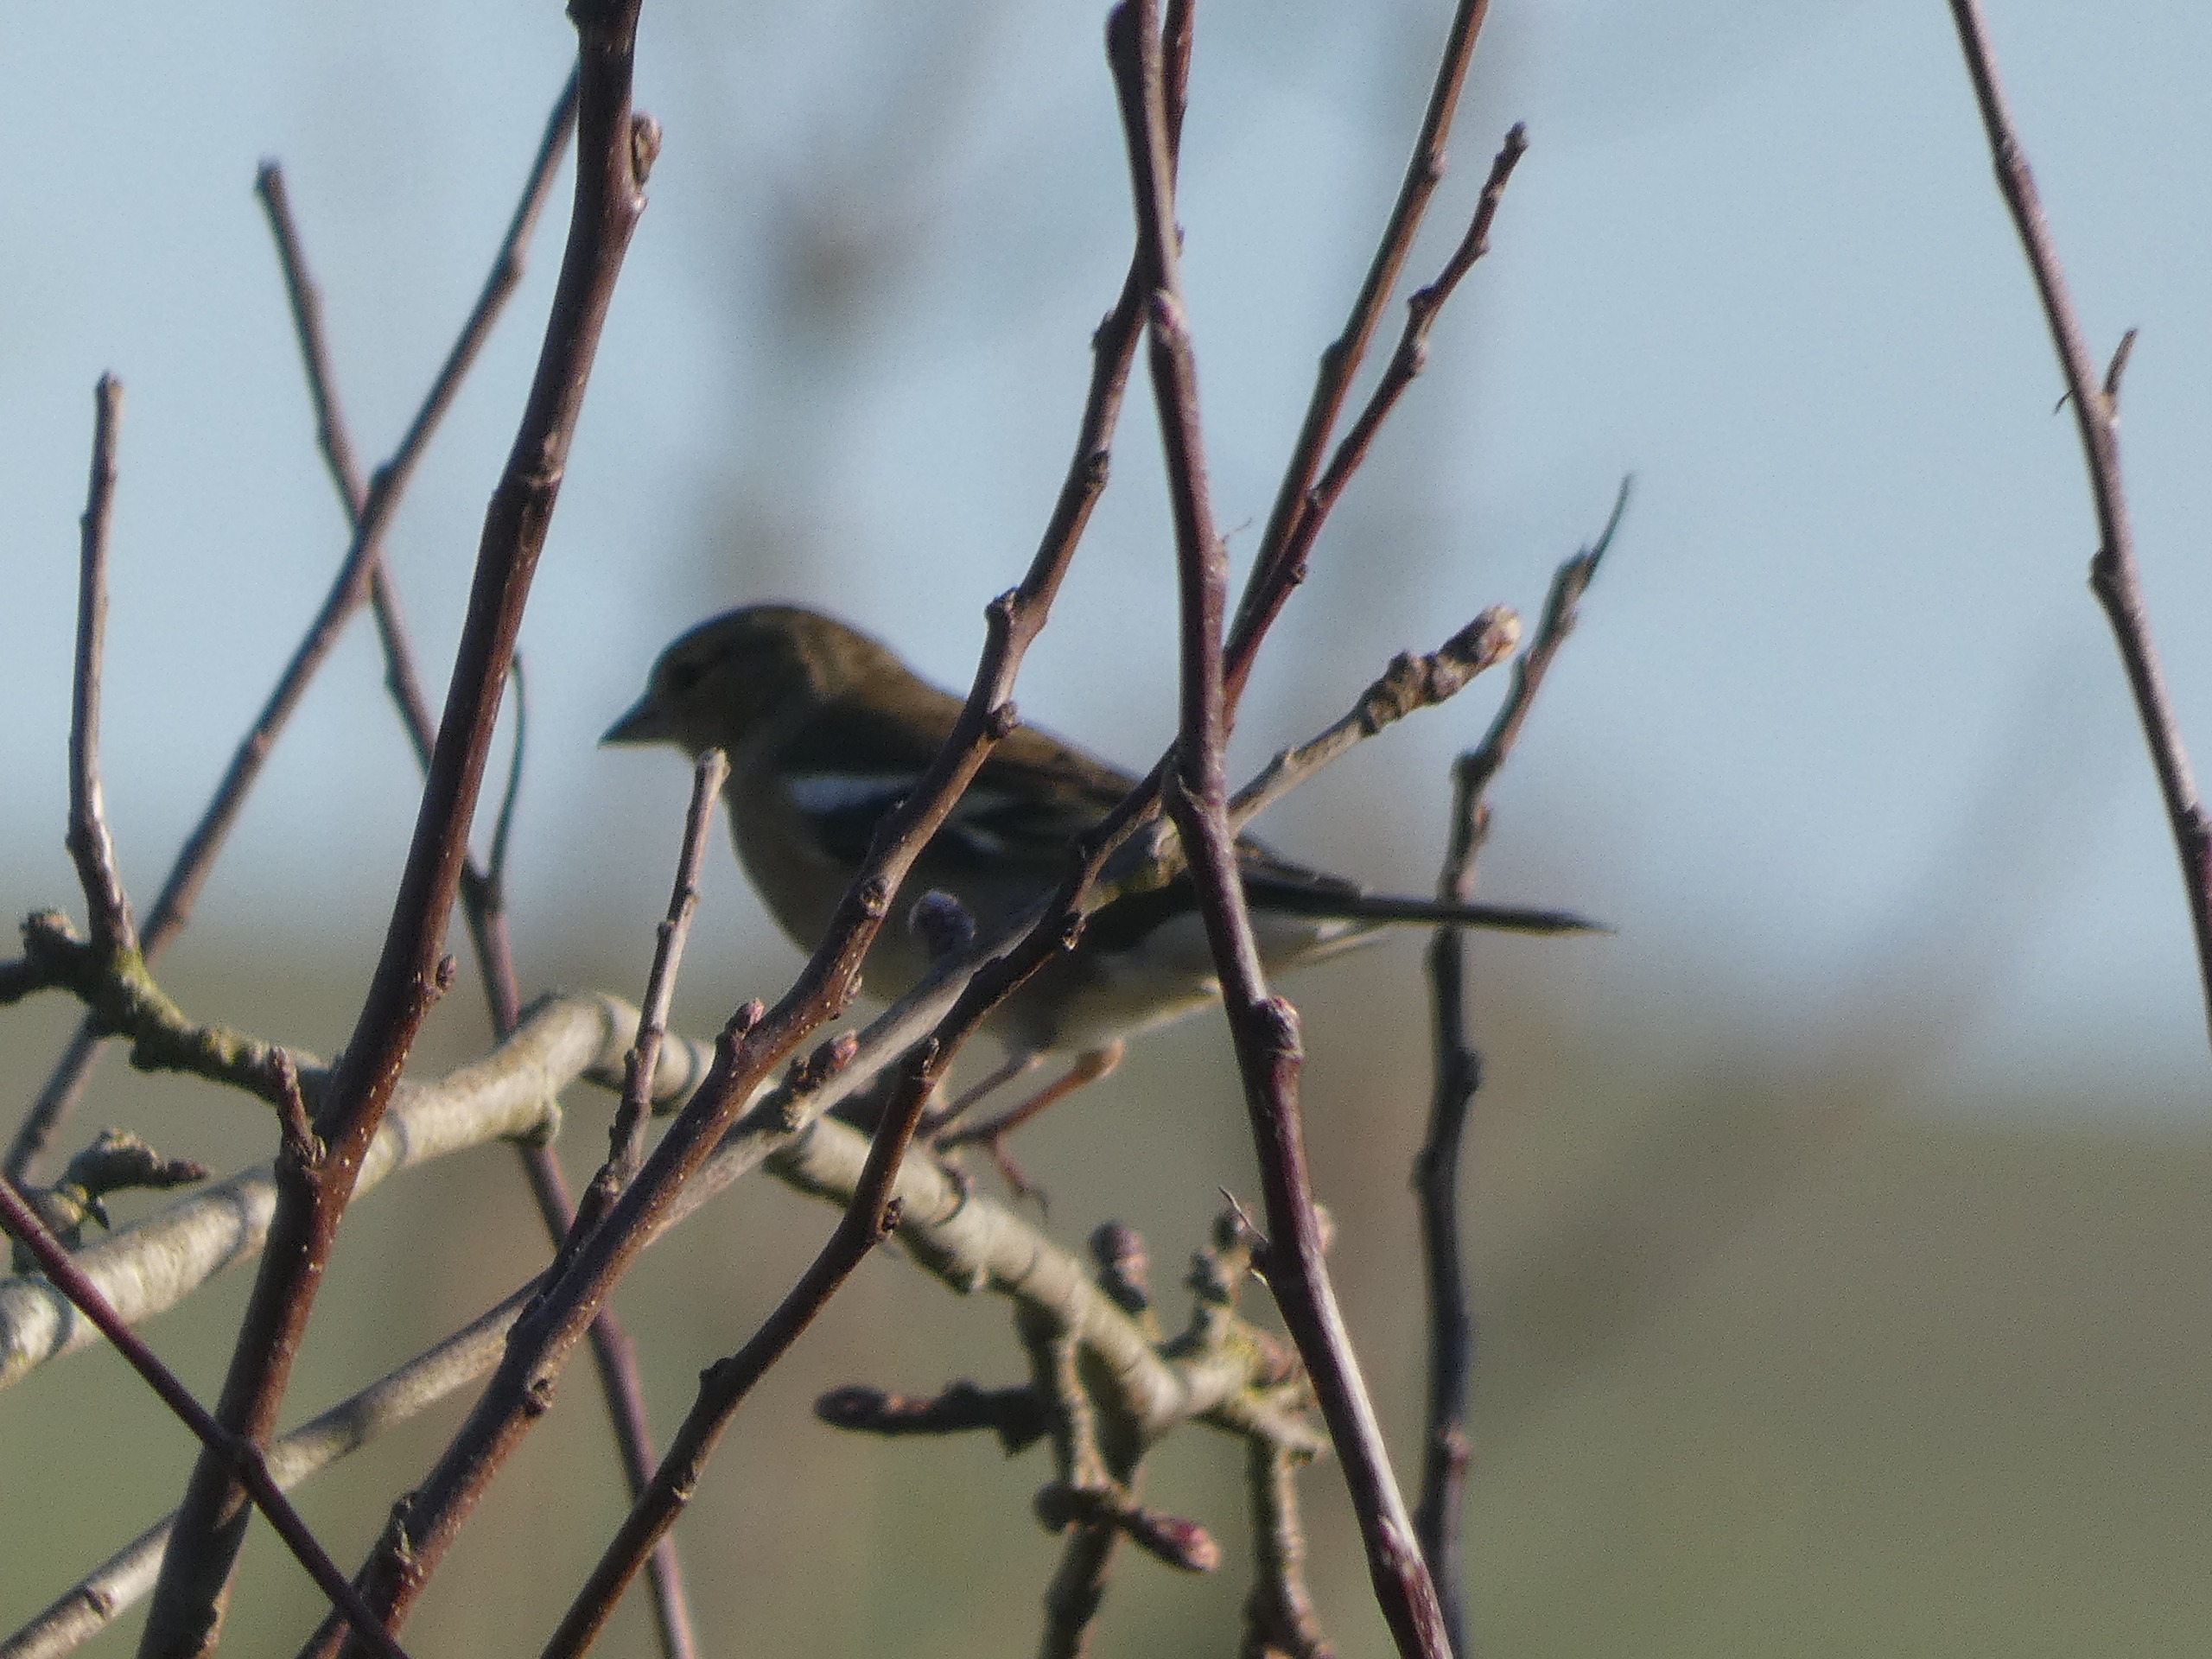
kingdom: Animalia
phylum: Chordata
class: Aves
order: Passeriformes
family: Fringillidae
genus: Fringilla
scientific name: Fringilla coelebs
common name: Bogfinke
